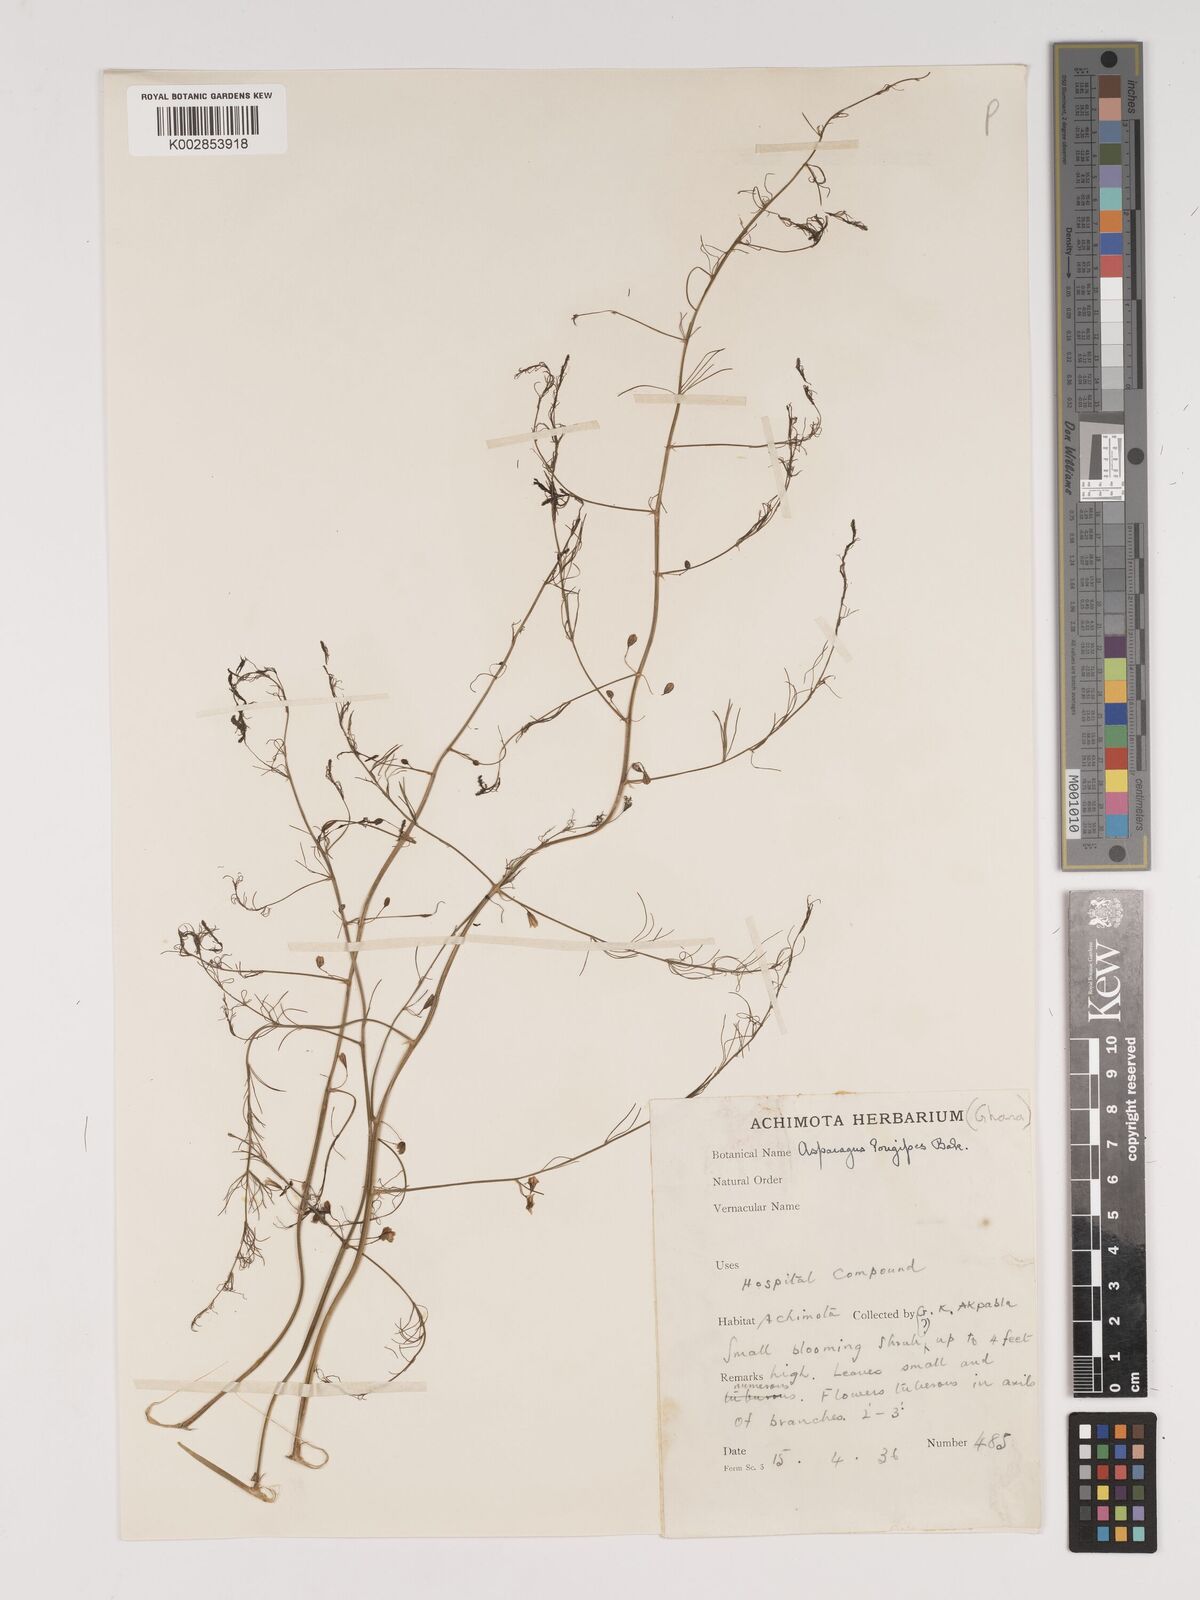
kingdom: Plantae
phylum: Tracheophyta
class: Liliopsida
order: Asparagales
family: Asparagaceae
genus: Asparagus
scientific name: Asparagus longipes
